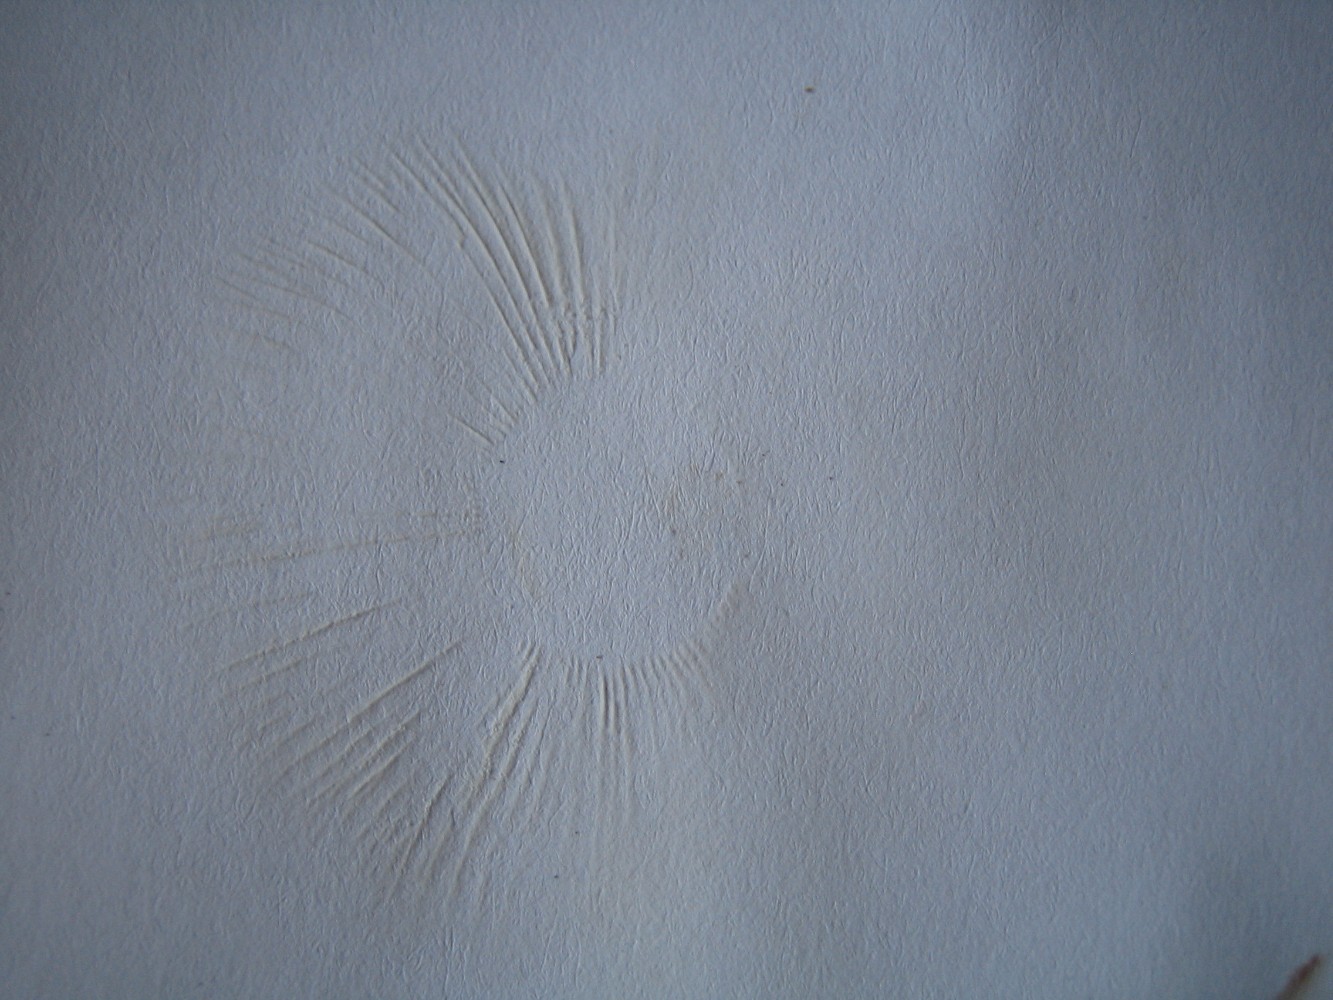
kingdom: Fungi
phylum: Basidiomycota
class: Agaricomycetes
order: Russulales
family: Russulaceae
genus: Russula
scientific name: Russula
